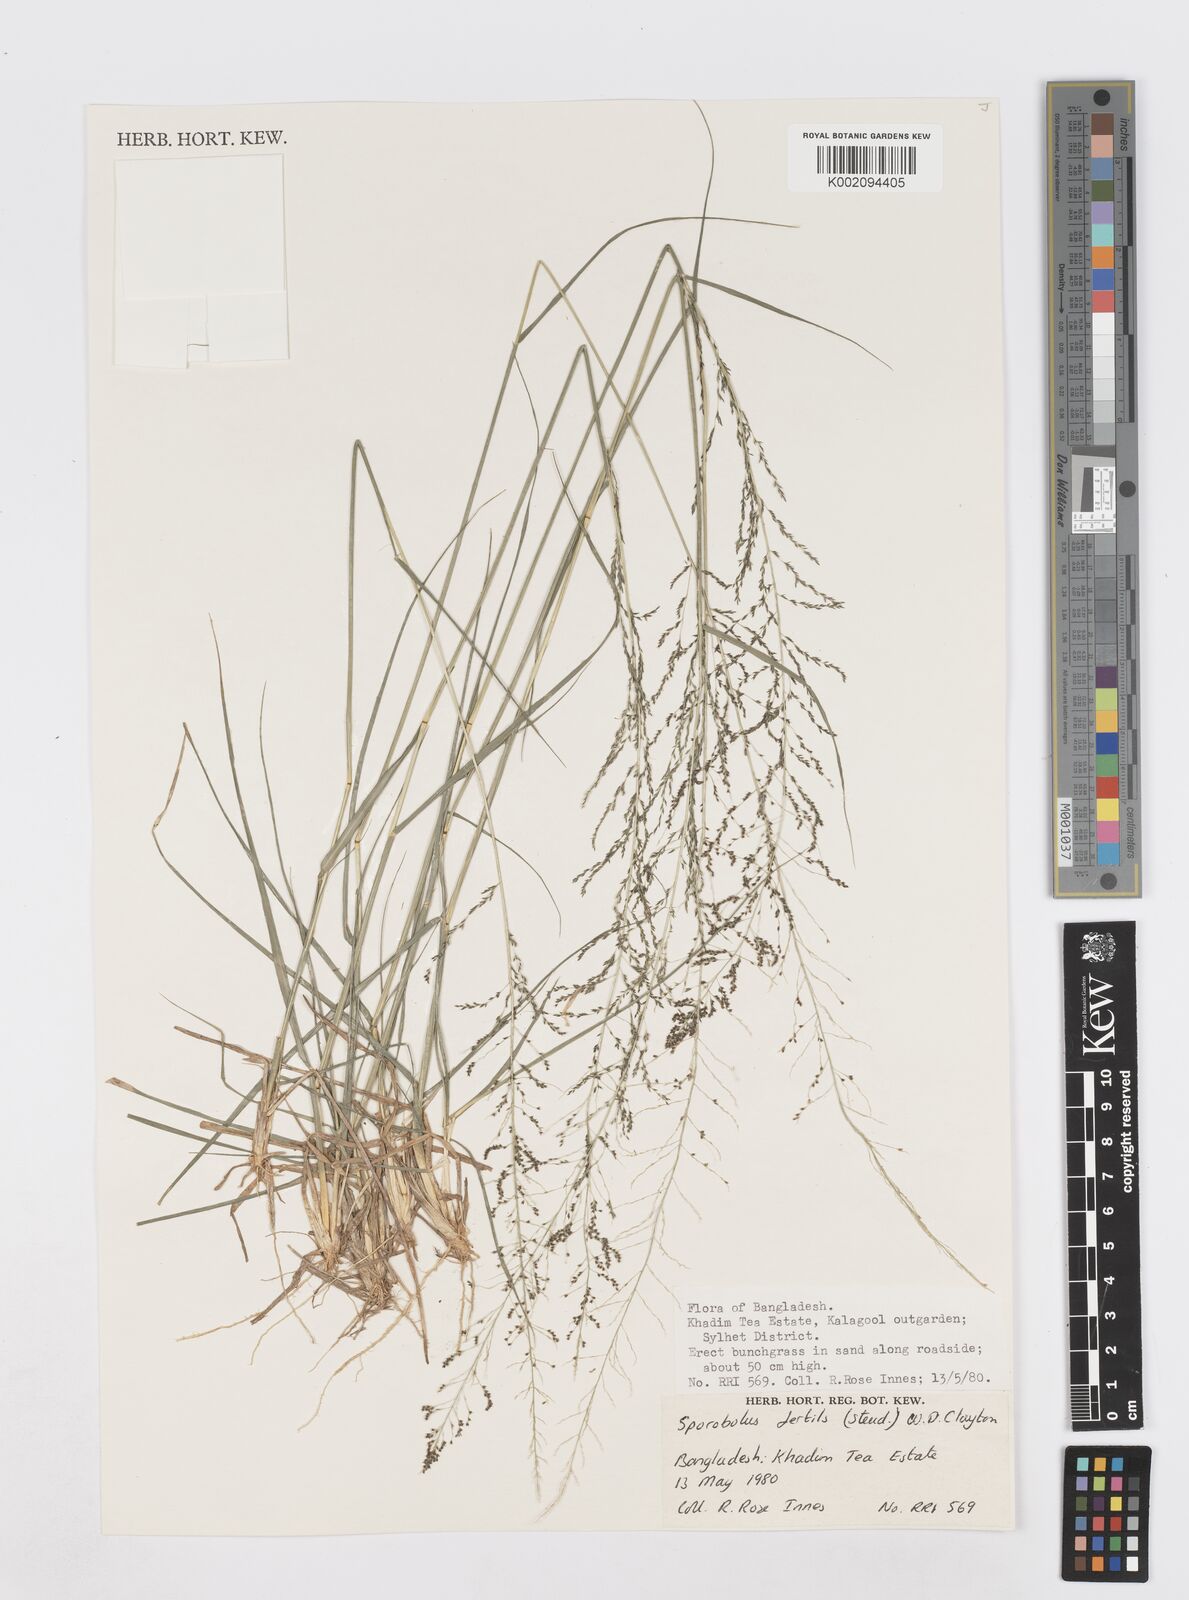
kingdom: Plantae
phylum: Tracheophyta
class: Liliopsida
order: Poales
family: Poaceae
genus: Sporobolus
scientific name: Sporobolus fertilis
